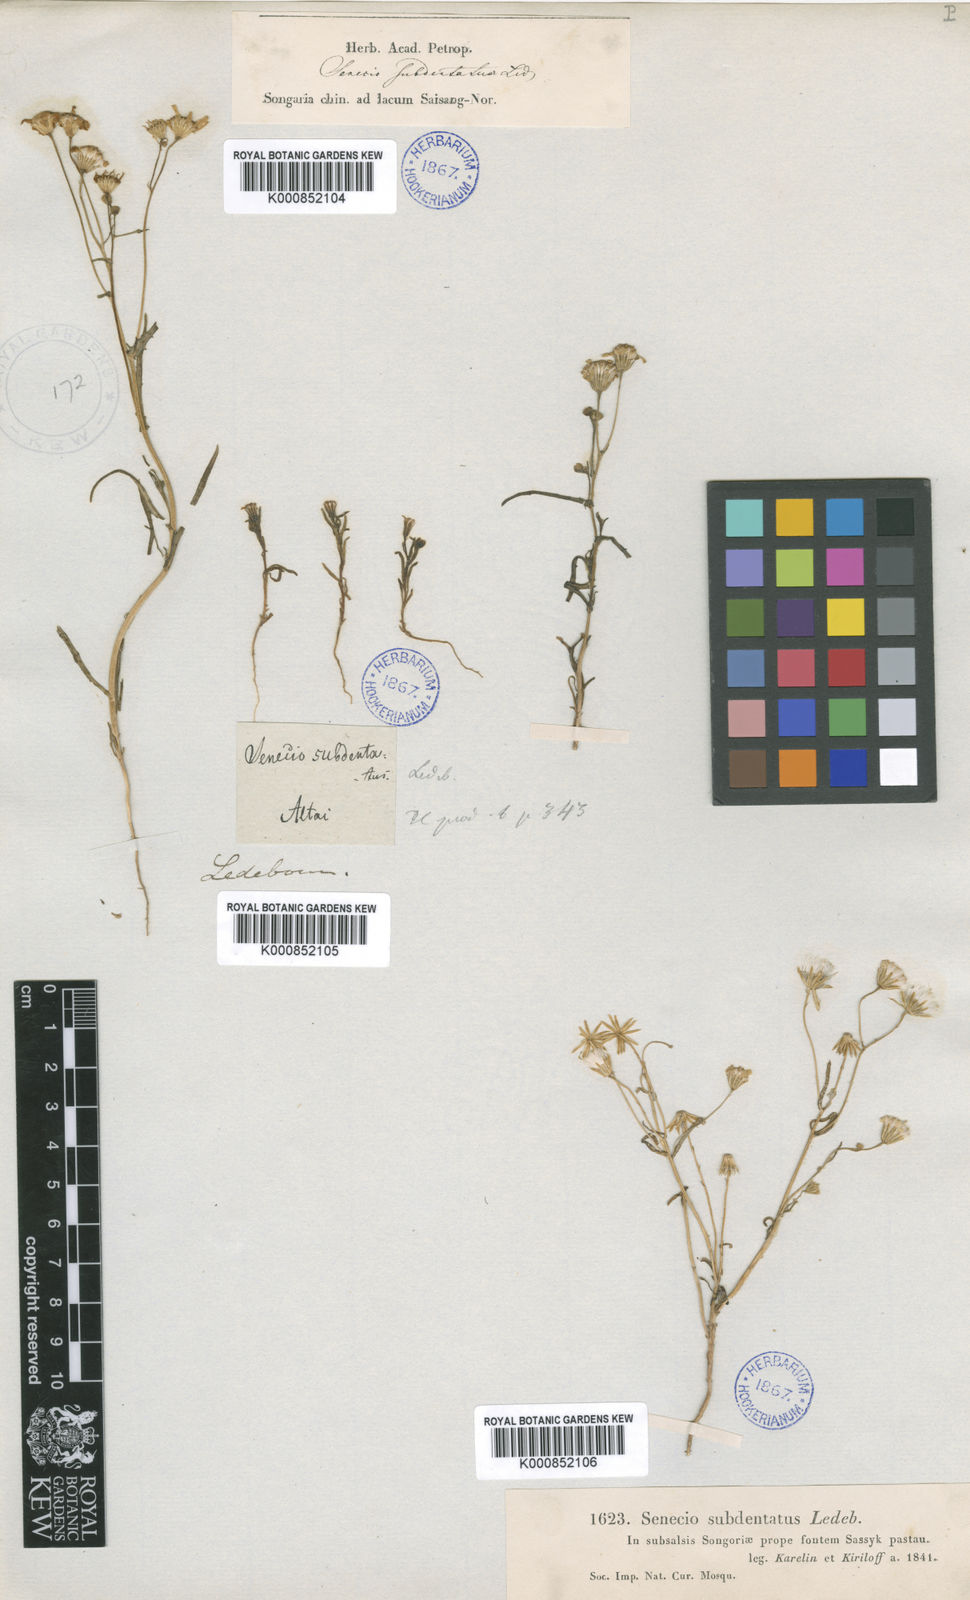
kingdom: Plantae
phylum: Tracheophyta
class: Magnoliopsida
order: Asterales
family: Asteraceae
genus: Senecio
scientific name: Senecio glaucus
